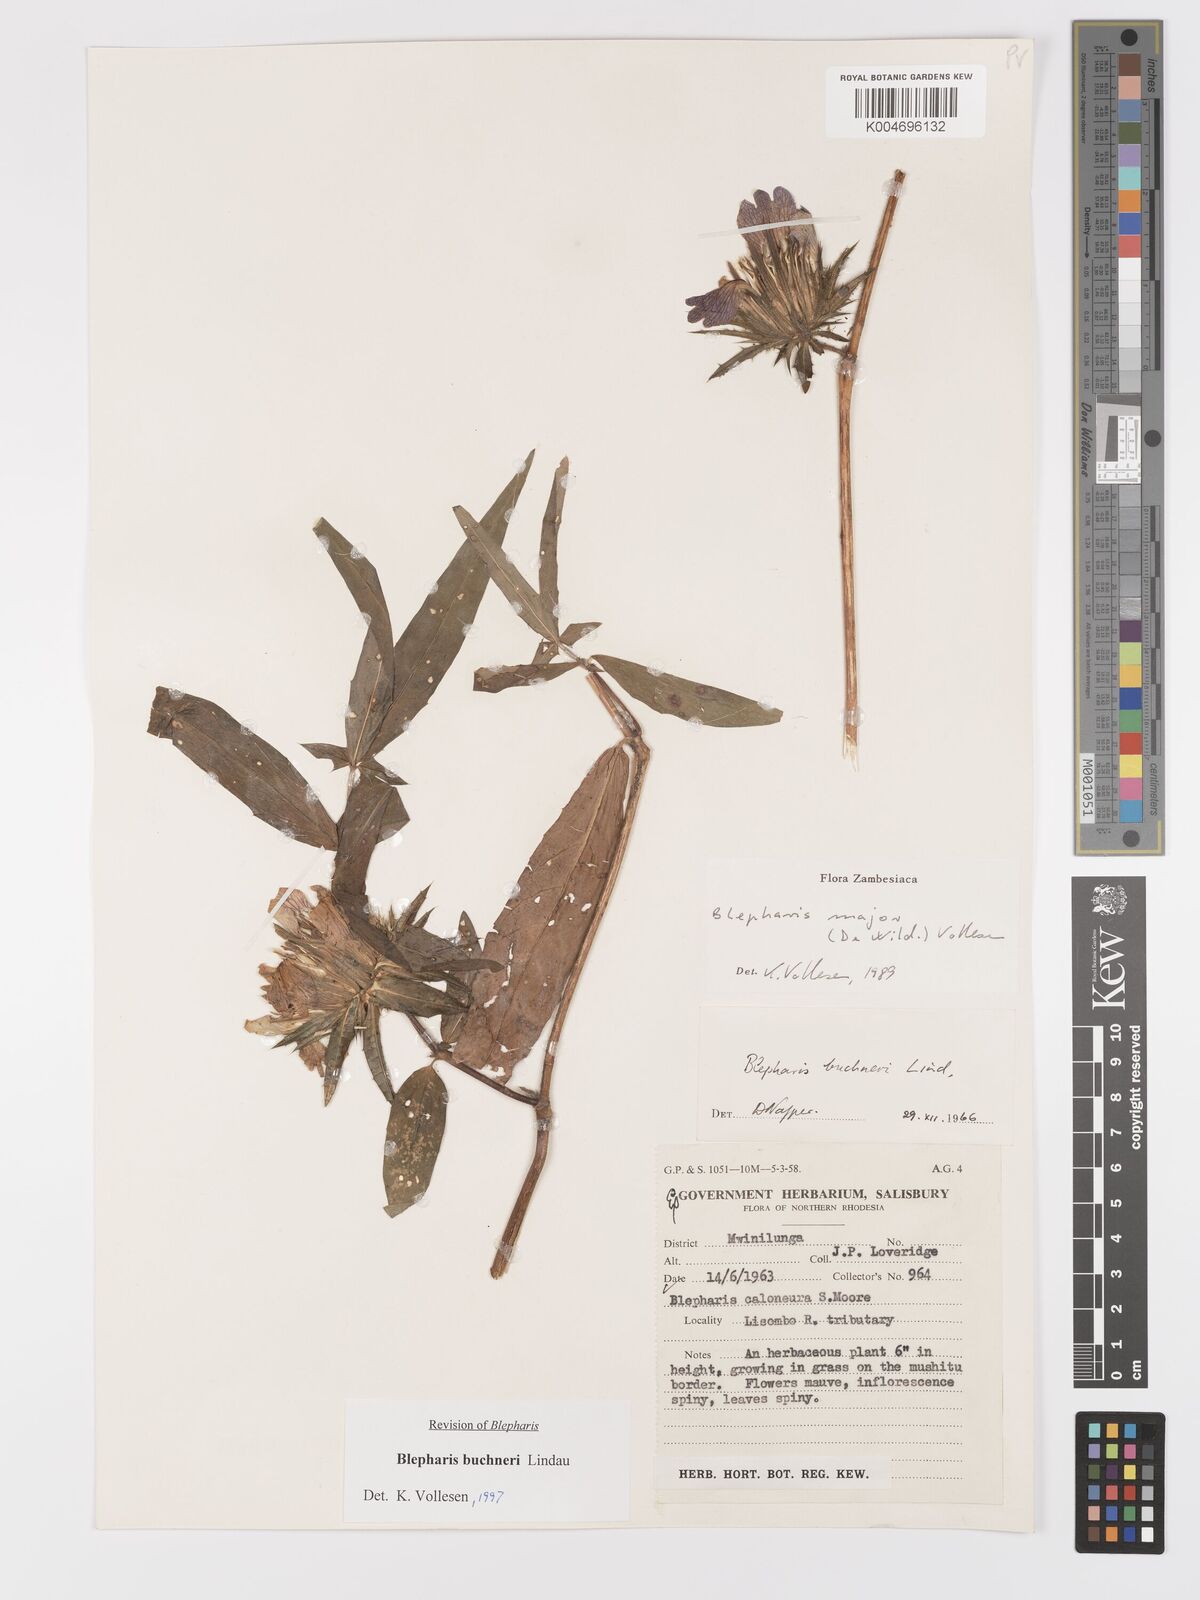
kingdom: Plantae
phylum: Tracheophyta
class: Magnoliopsida
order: Lamiales
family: Acanthaceae
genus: Blepharis
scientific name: Blepharis buchneri
